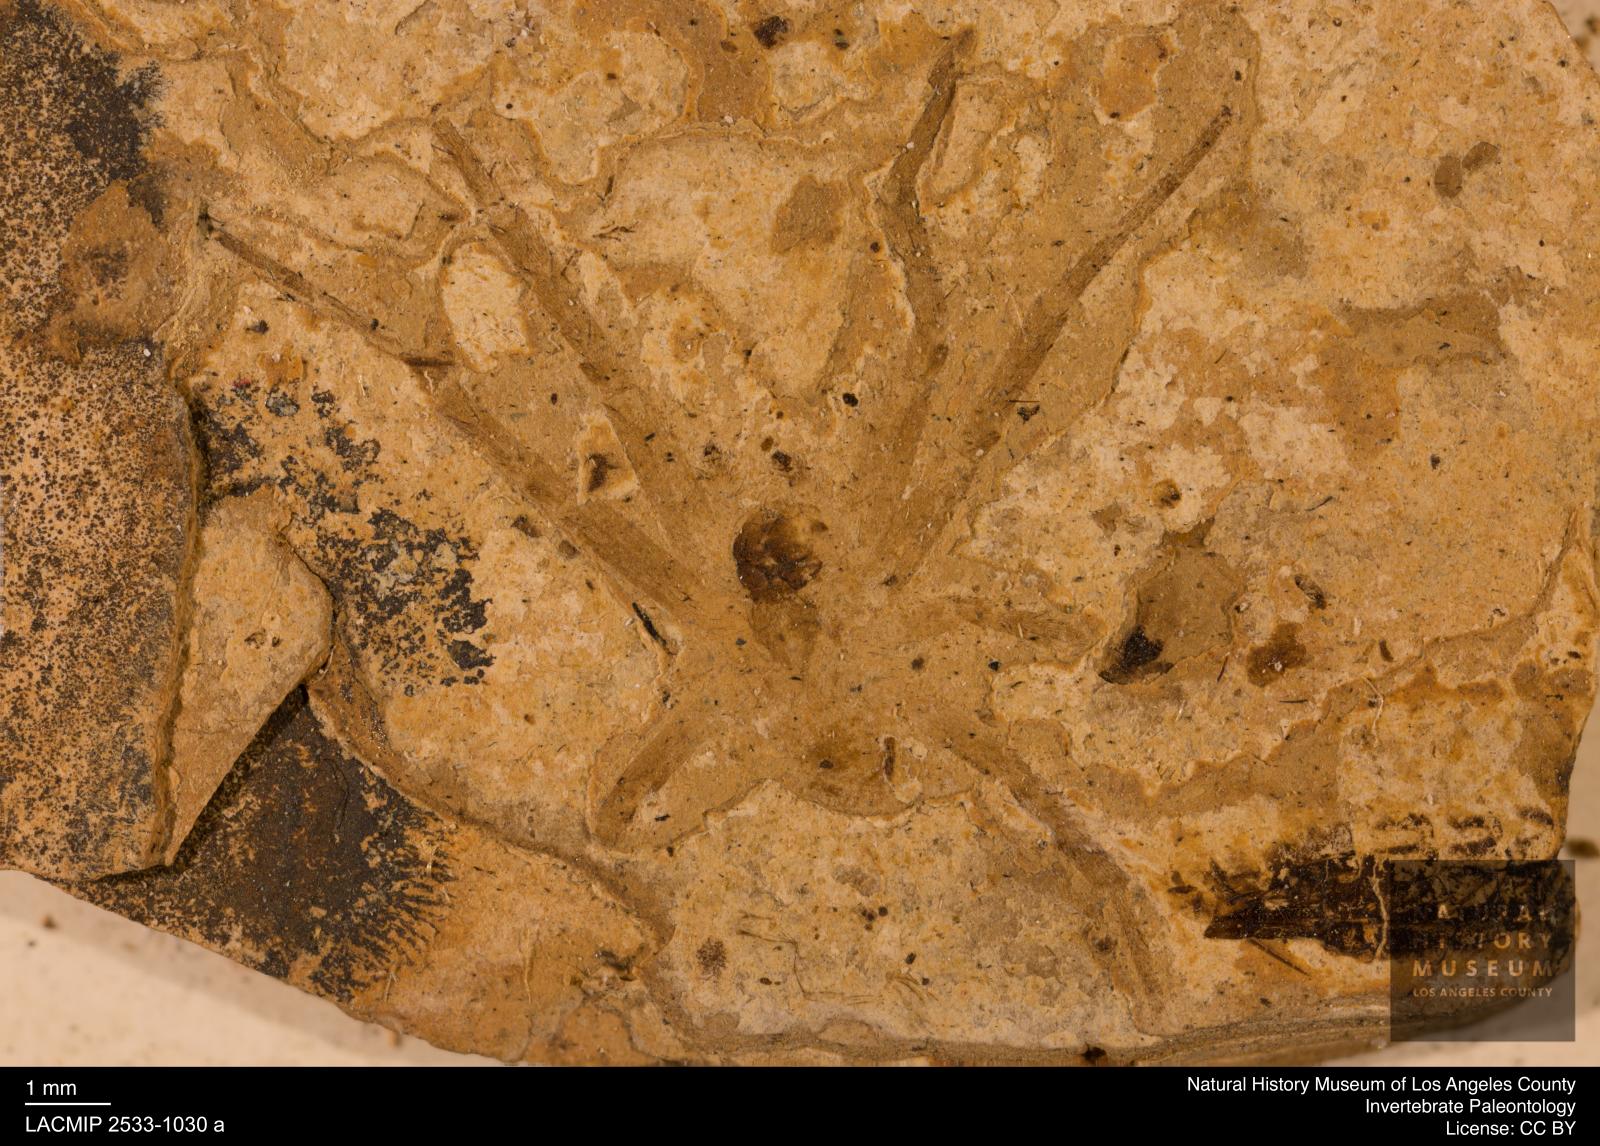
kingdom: Animalia
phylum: Arthropoda
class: Arachnida
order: Araneae
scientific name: Araneae
